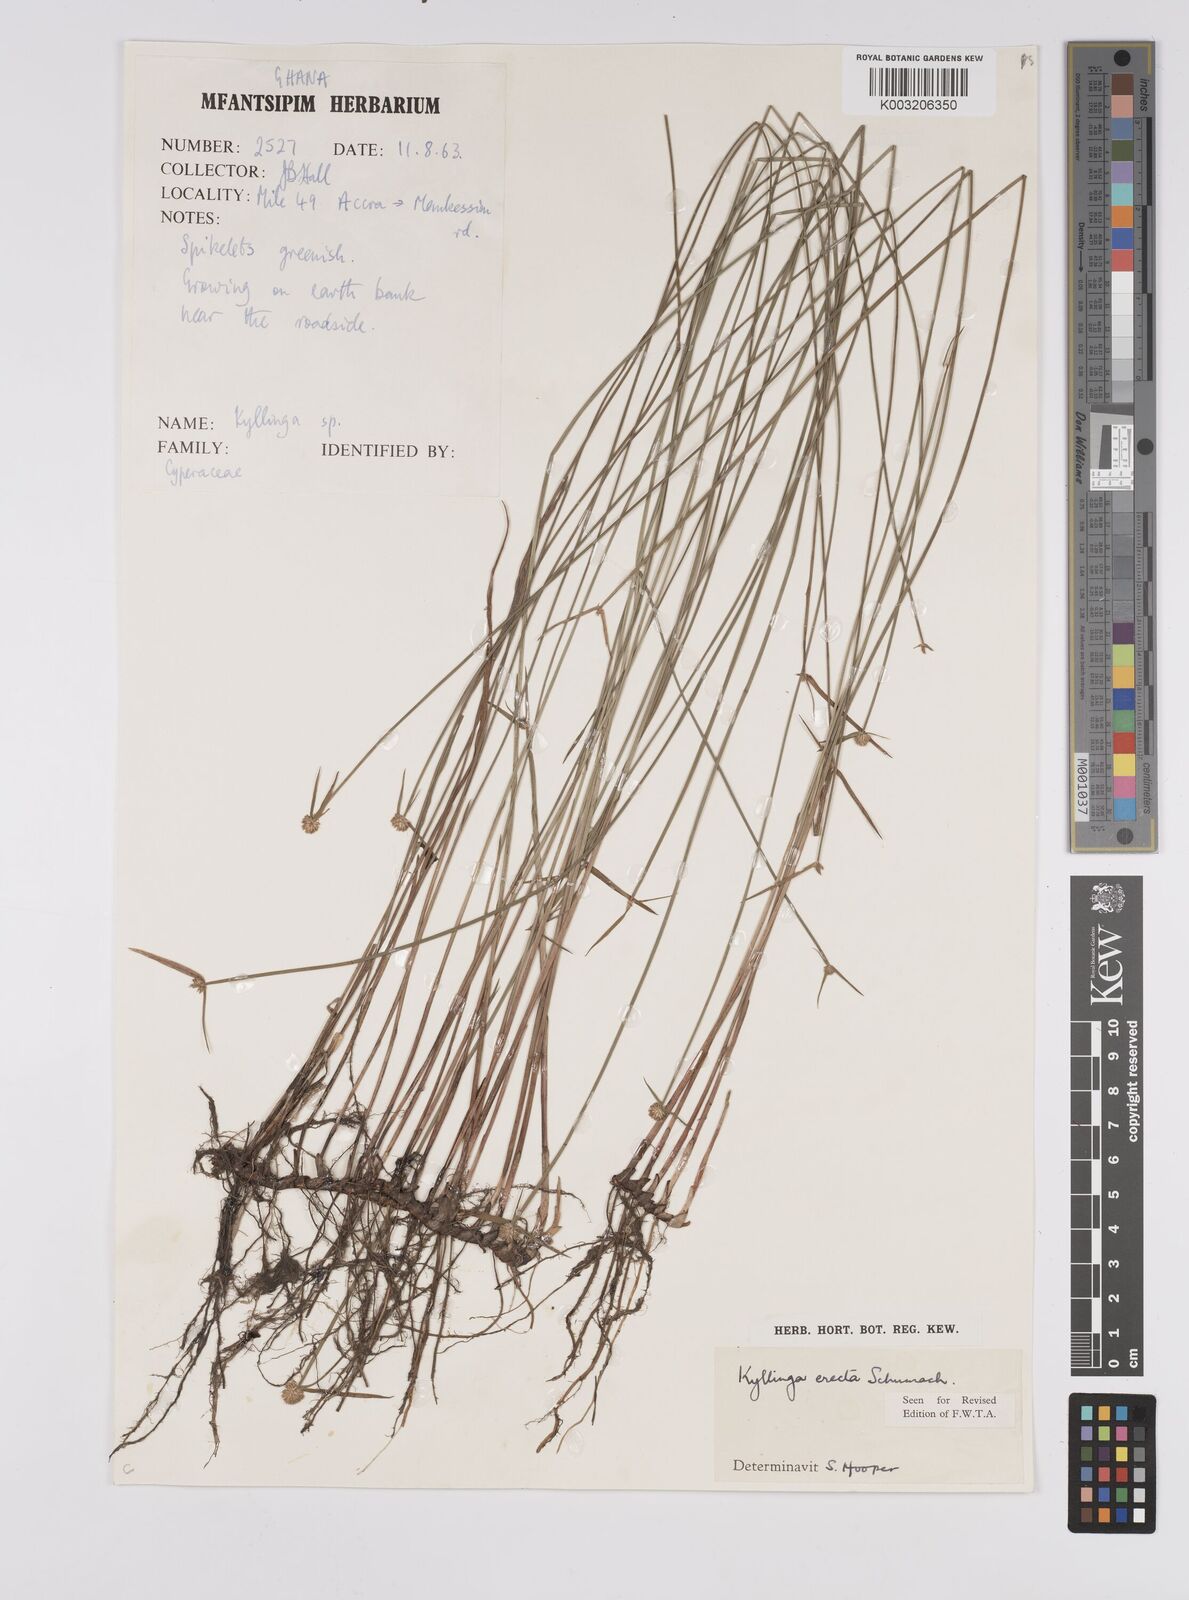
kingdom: Plantae
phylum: Tracheophyta
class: Liliopsida
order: Poales
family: Cyperaceae
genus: Cyperus
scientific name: Cyperus erectus
